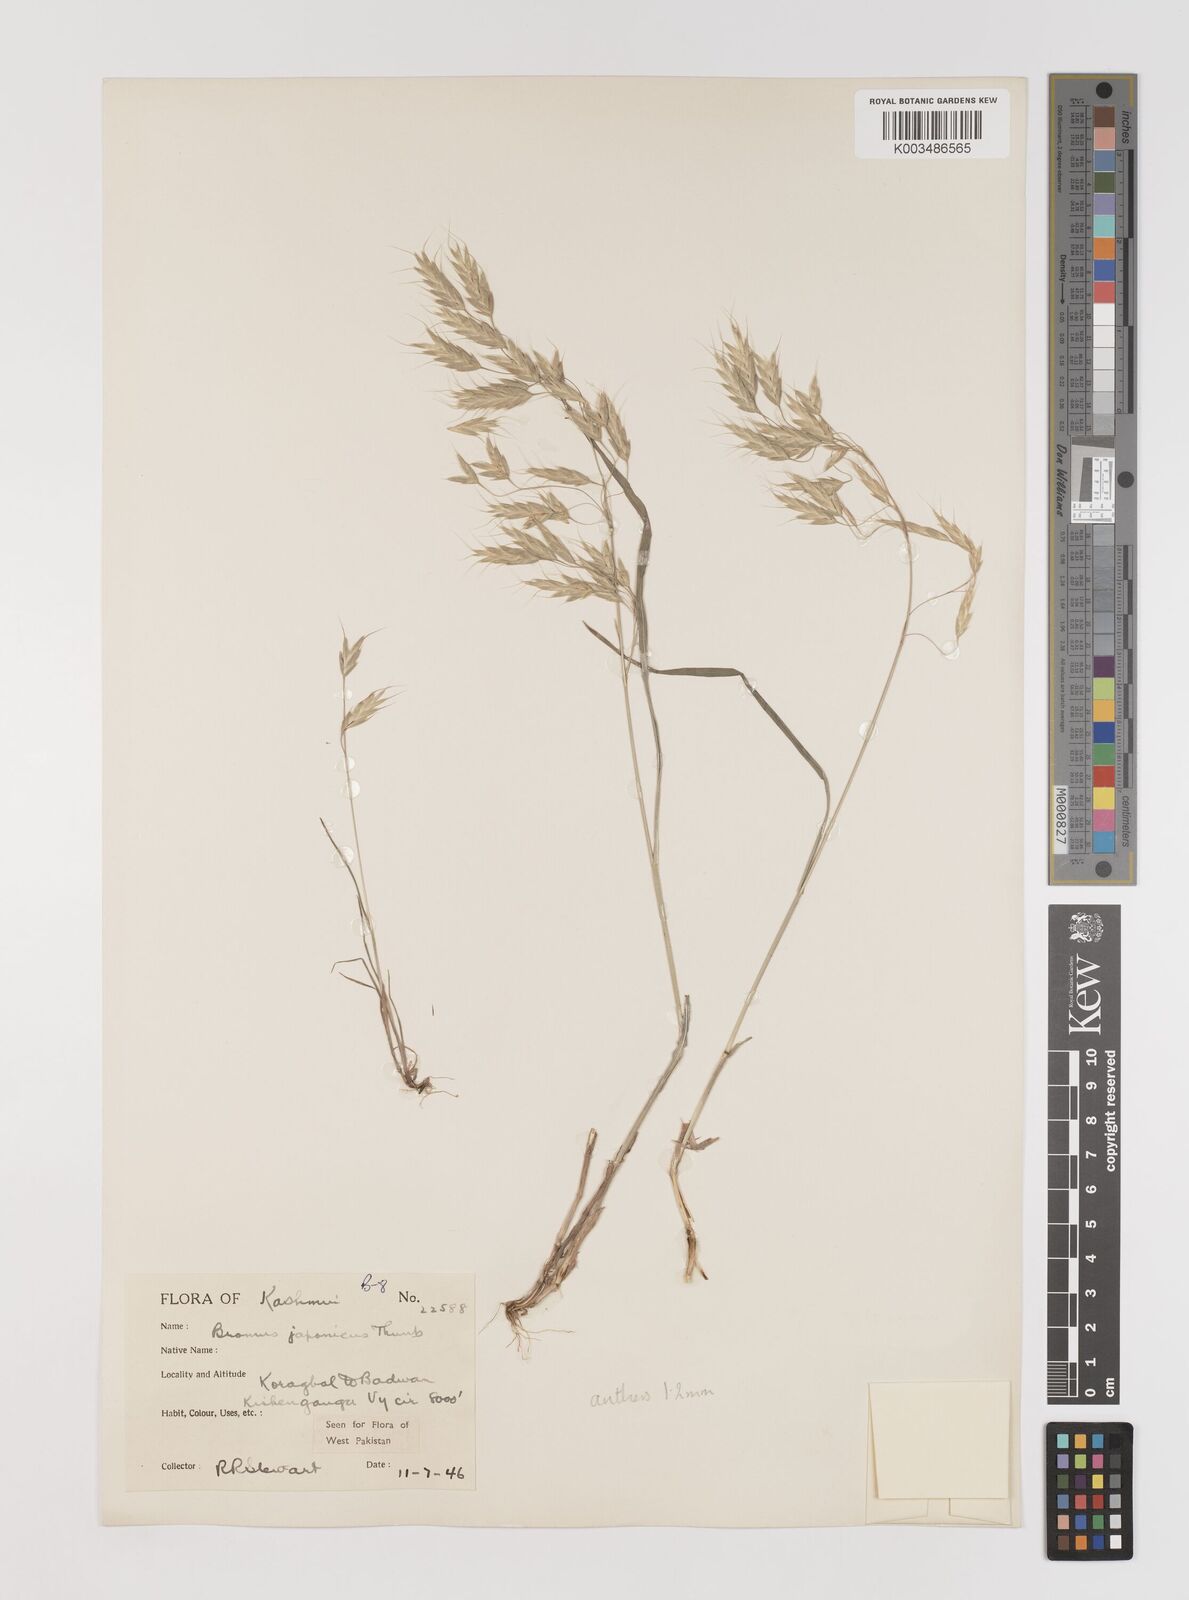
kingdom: Plantae
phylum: Tracheophyta
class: Liliopsida
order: Poales
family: Poaceae
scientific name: Poaceae
